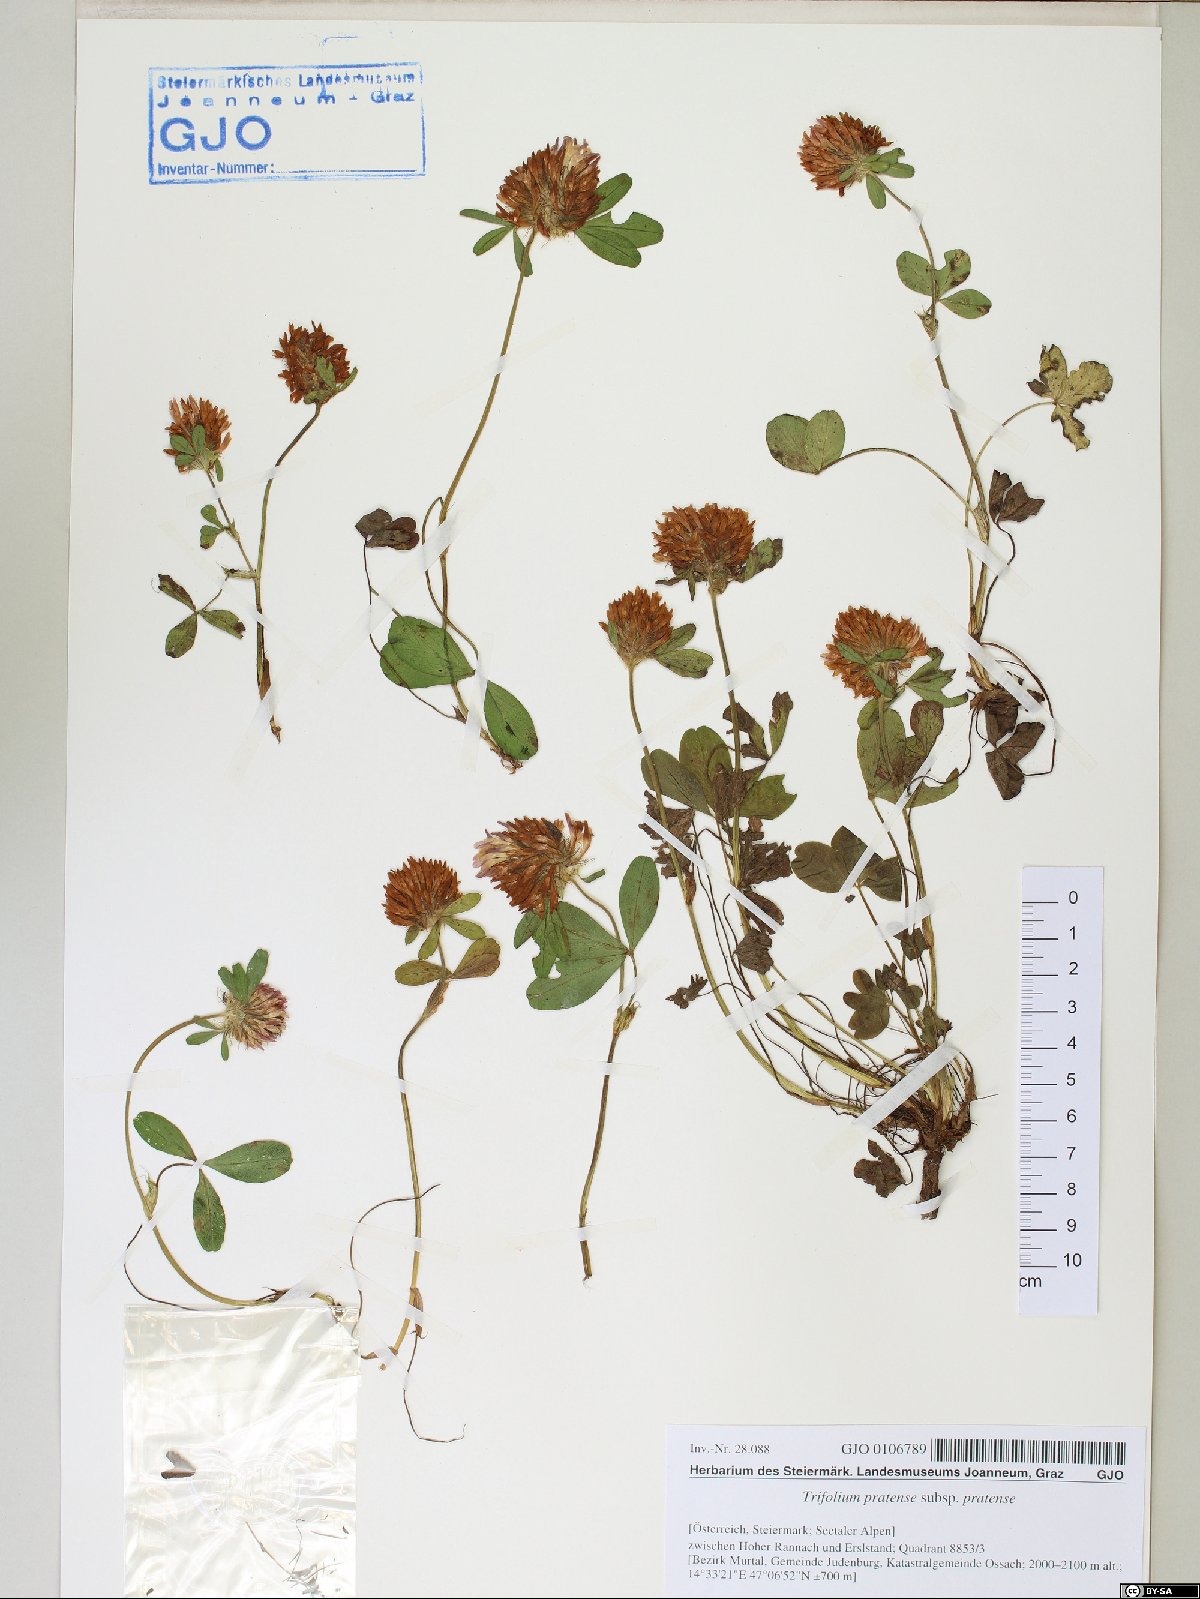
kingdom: Plantae
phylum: Tracheophyta
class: Magnoliopsida
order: Fabales
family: Fabaceae
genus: Trifolium
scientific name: Trifolium pratense
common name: Red clover
